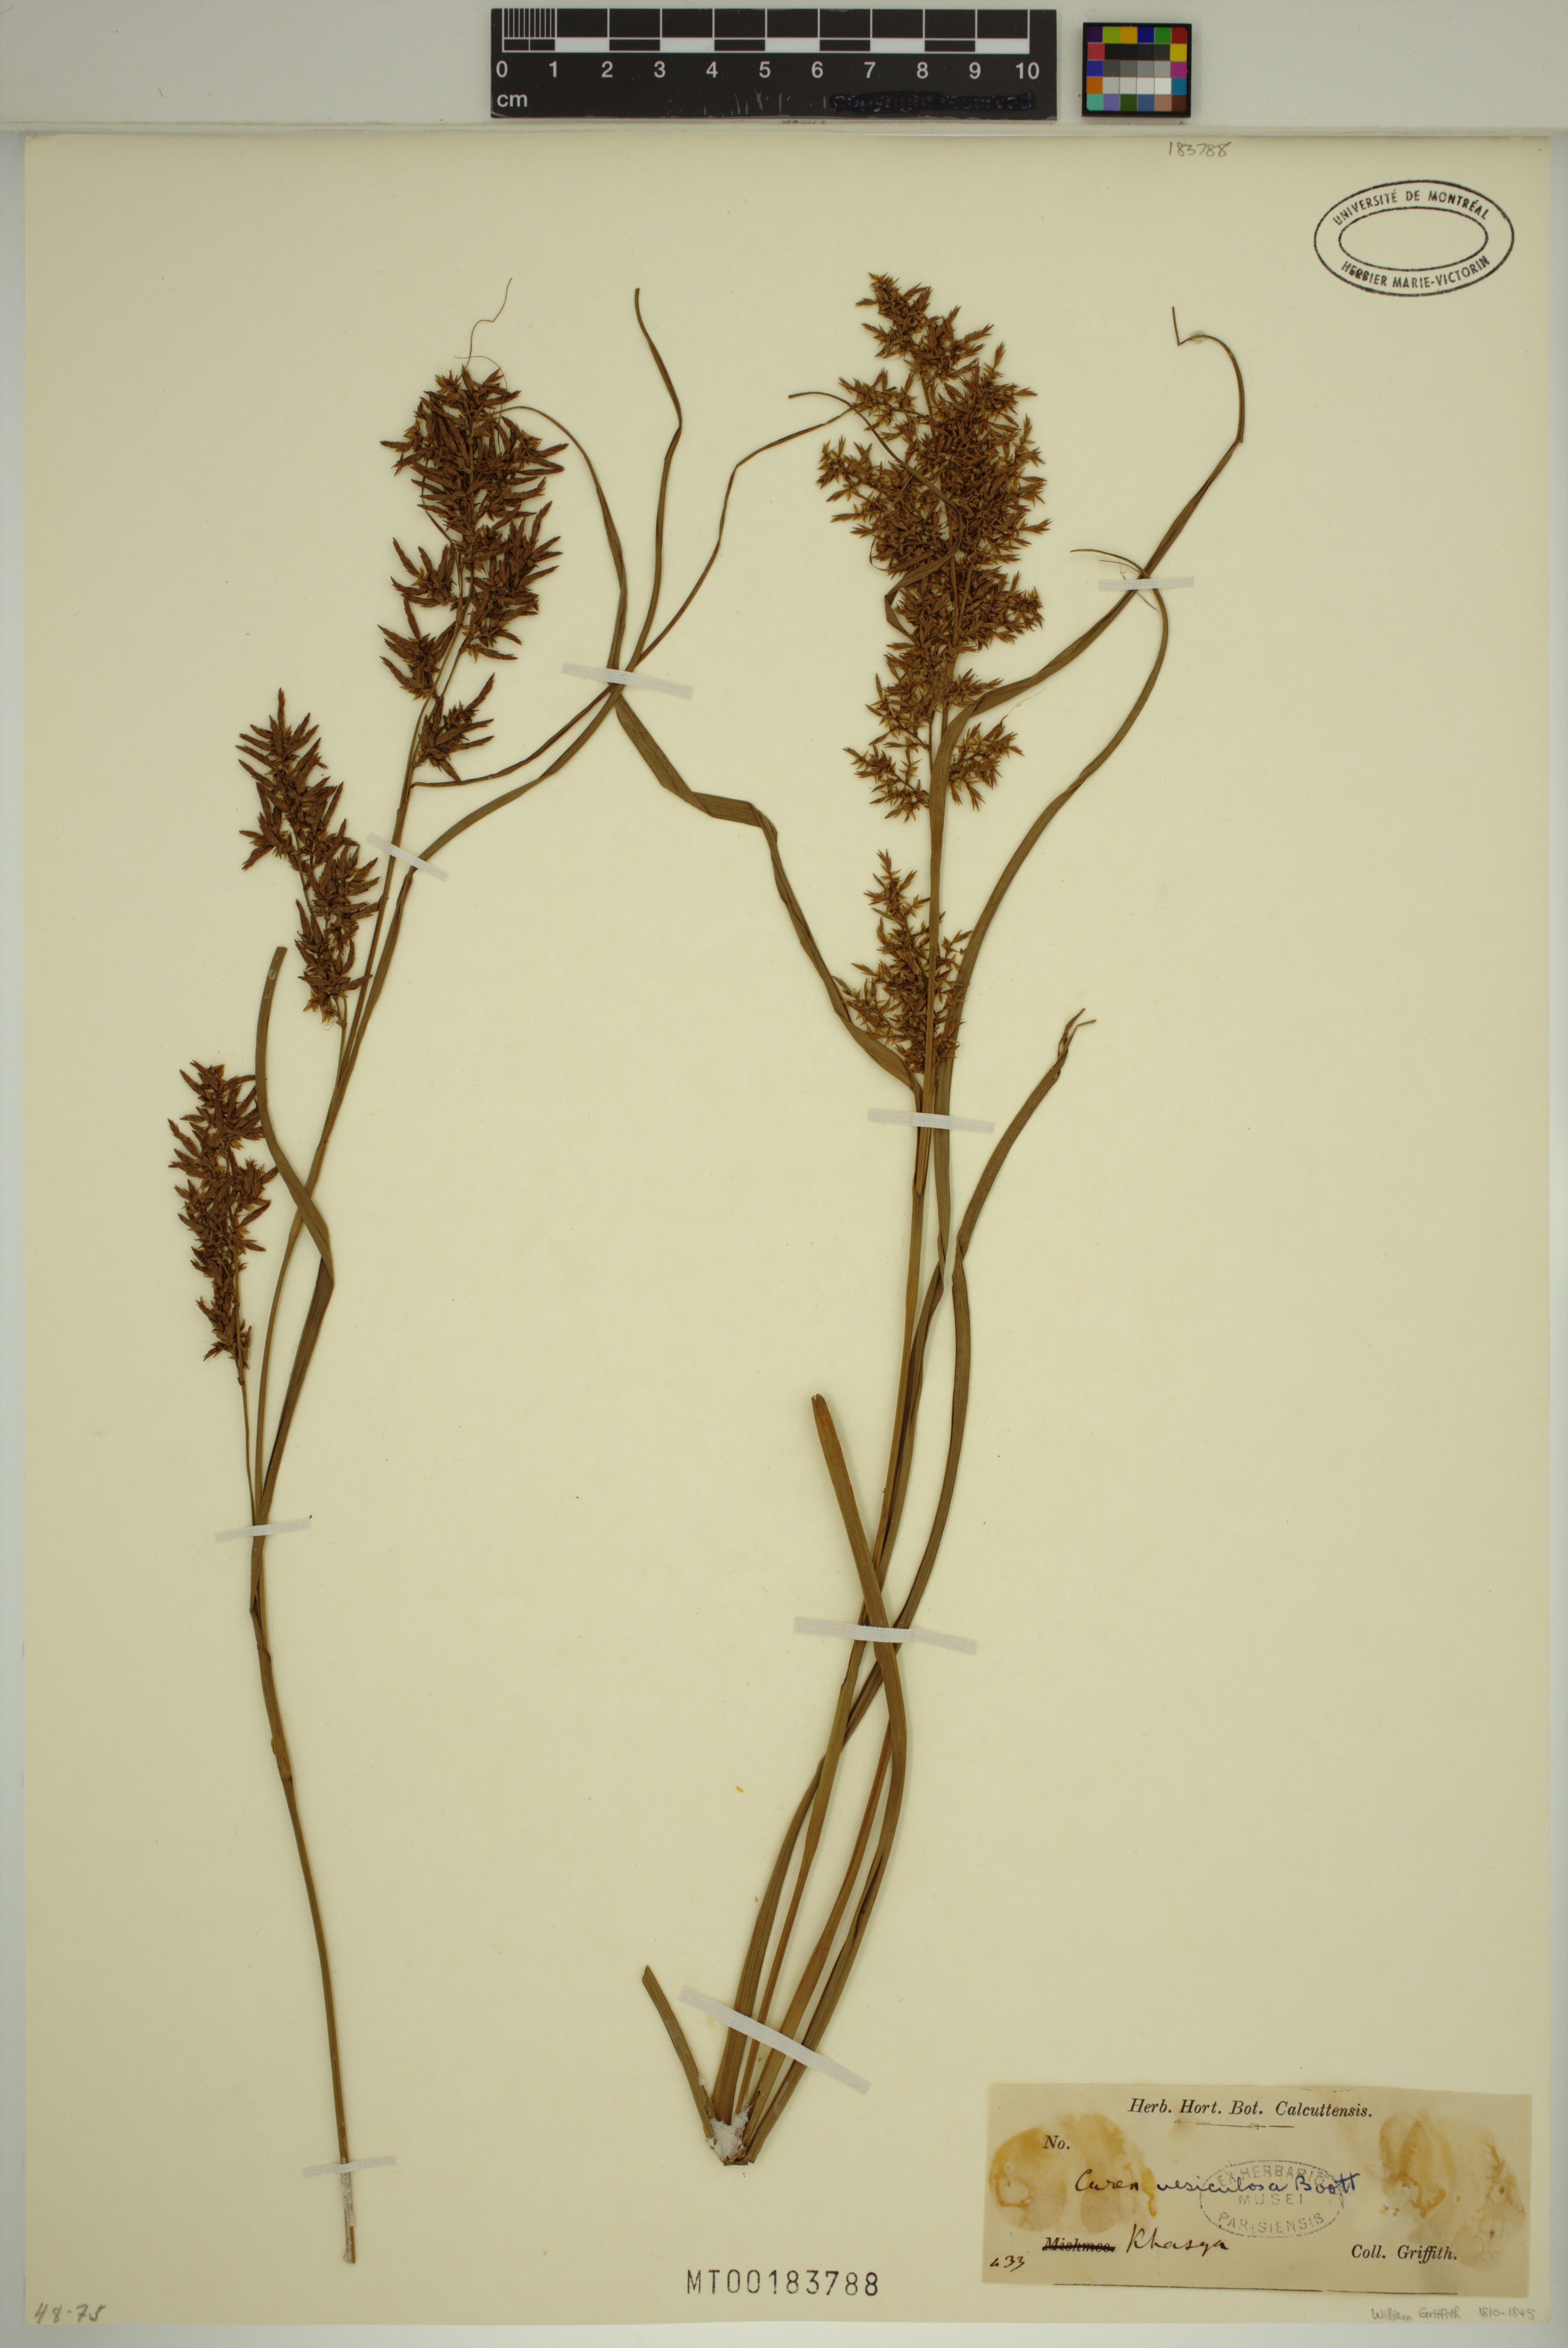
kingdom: Plantae
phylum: Tracheophyta
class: Liliopsida
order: Poales
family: Cyperaceae
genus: Carex
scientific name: Carex vesiculosa
